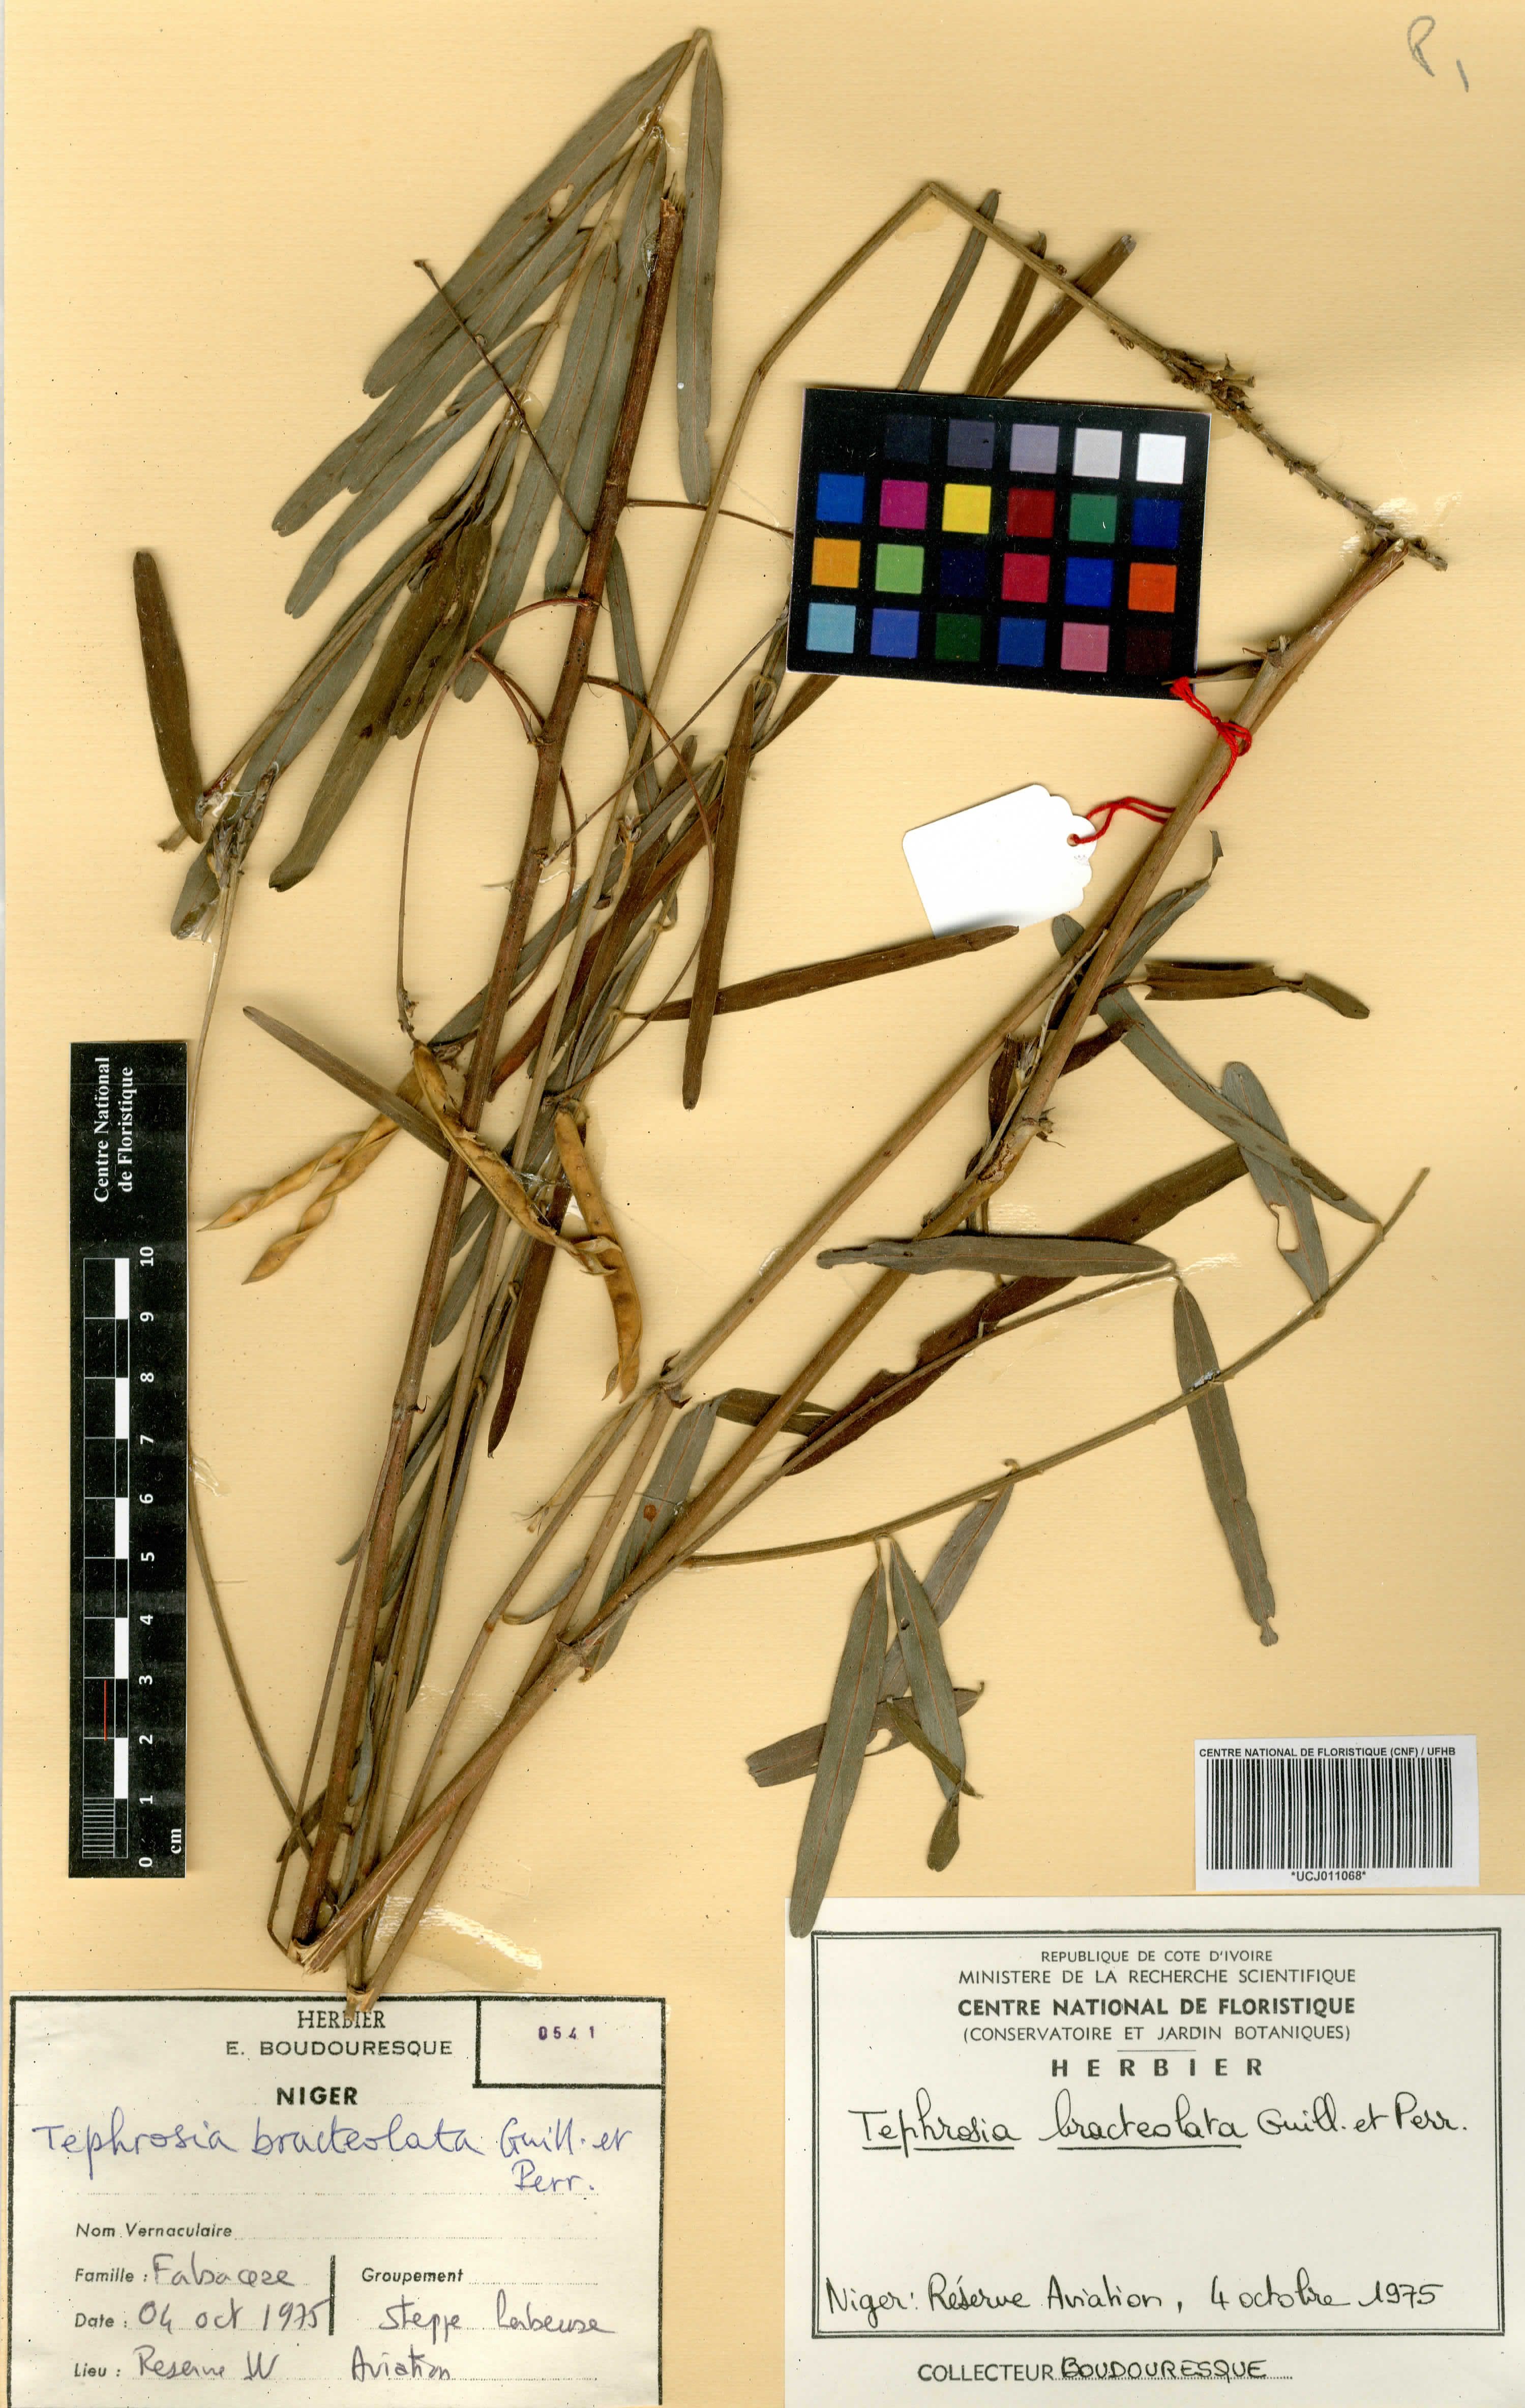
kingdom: Plantae
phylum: Tracheophyta
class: Magnoliopsida
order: Fabales
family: Fabaceae
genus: Tephrosia
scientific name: Tephrosia bracteolata
